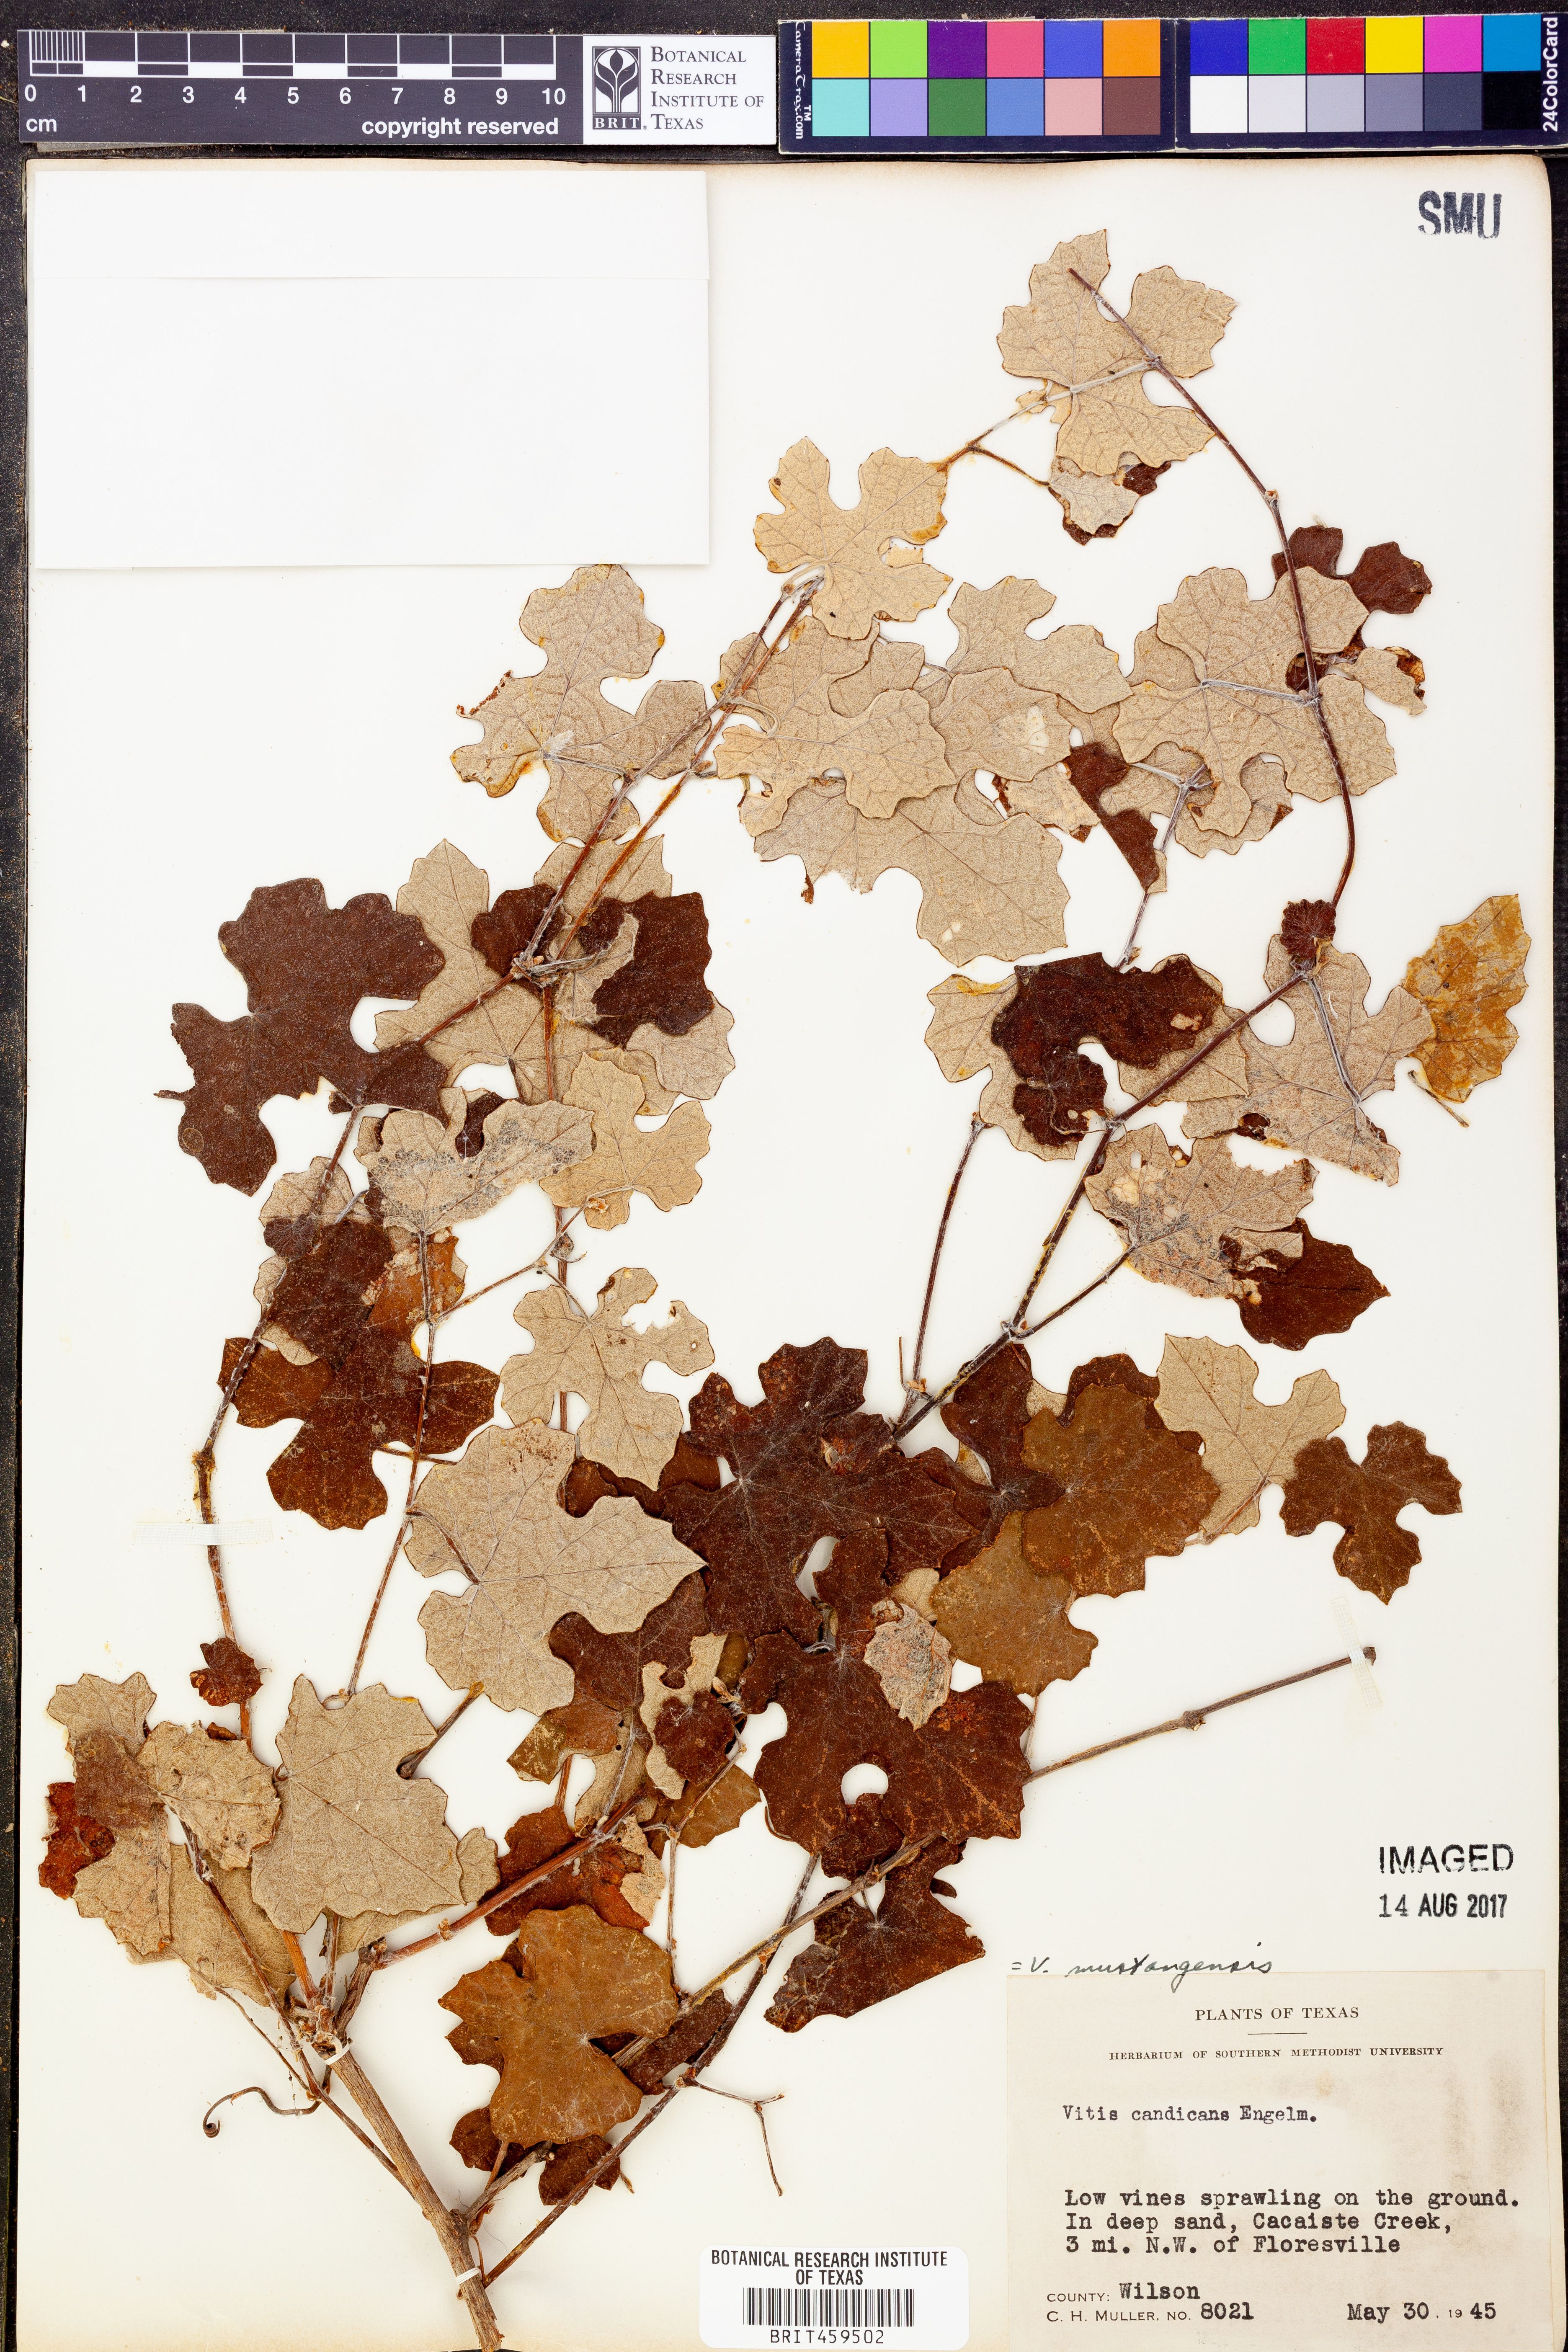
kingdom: Plantae
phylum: Tracheophyta
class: Magnoliopsida
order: Vitales
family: Vitaceae
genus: Vitis
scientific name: Vitis mustangensis
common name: Mustang grape
